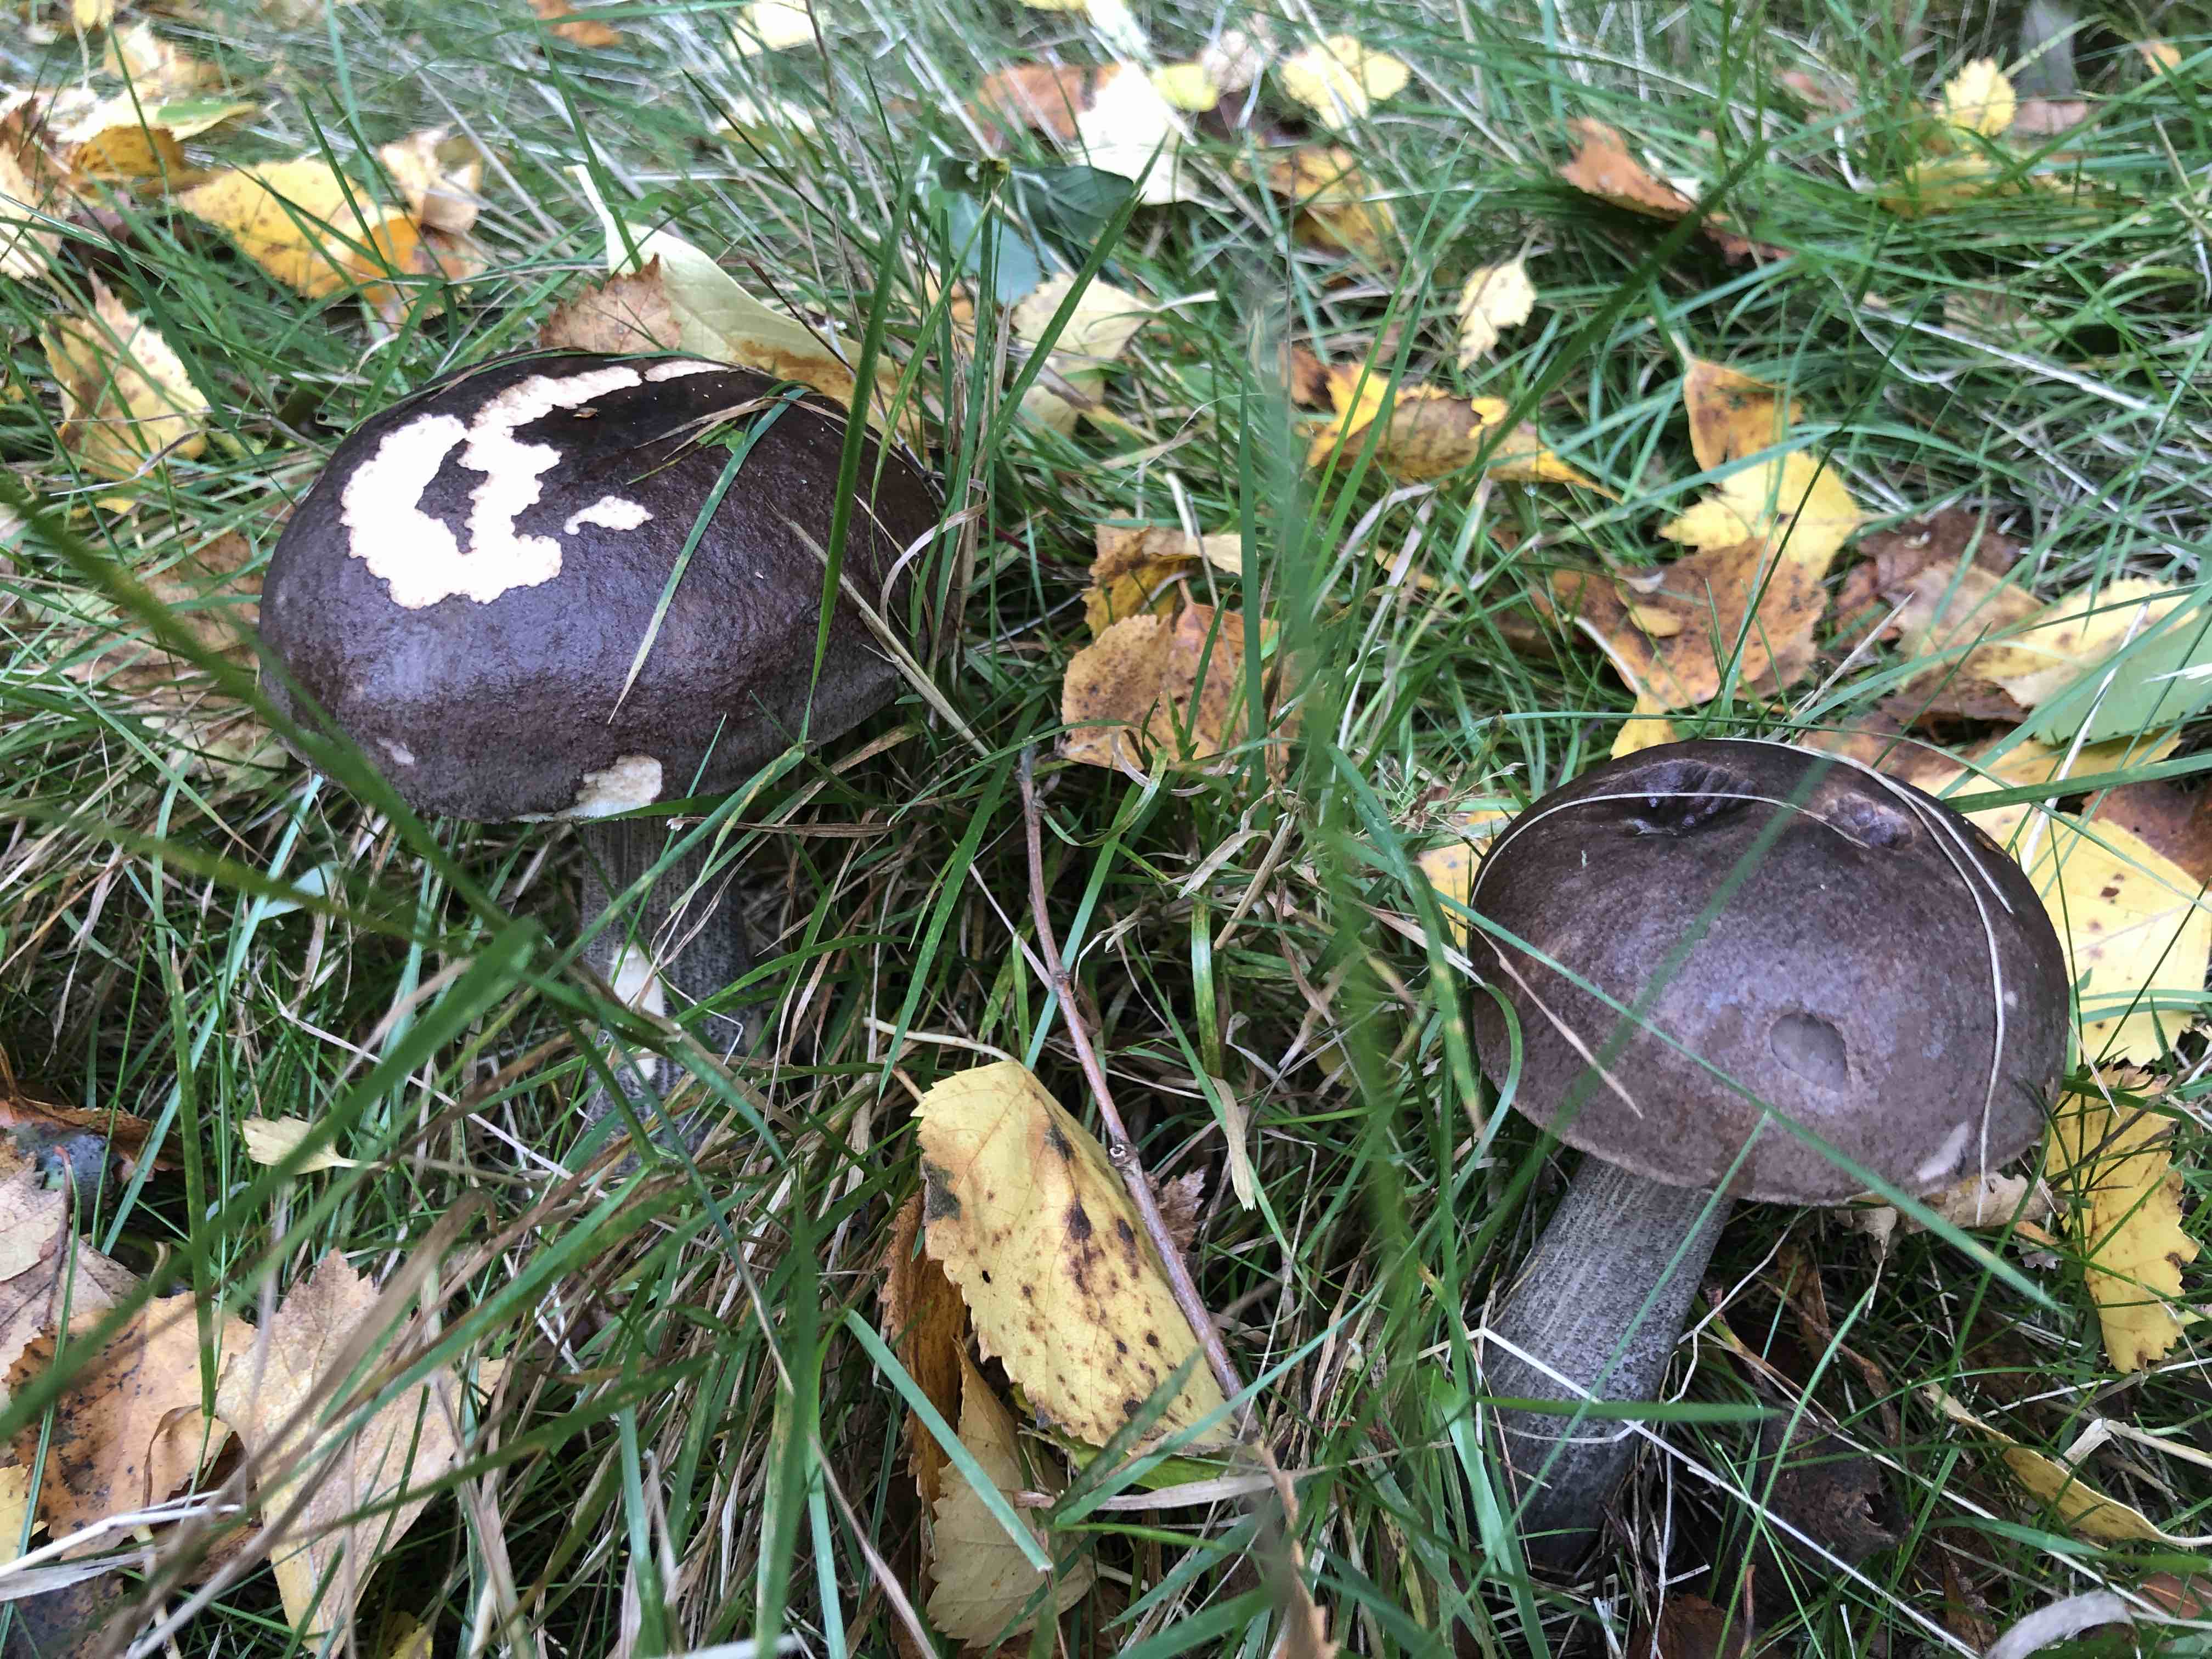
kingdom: Fungi
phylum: Basidiomycota
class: Agaricomycetes
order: Boletales
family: Boletaceae
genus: Leccinum
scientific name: Leccinum melaneum
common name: mørk skælrørhat
